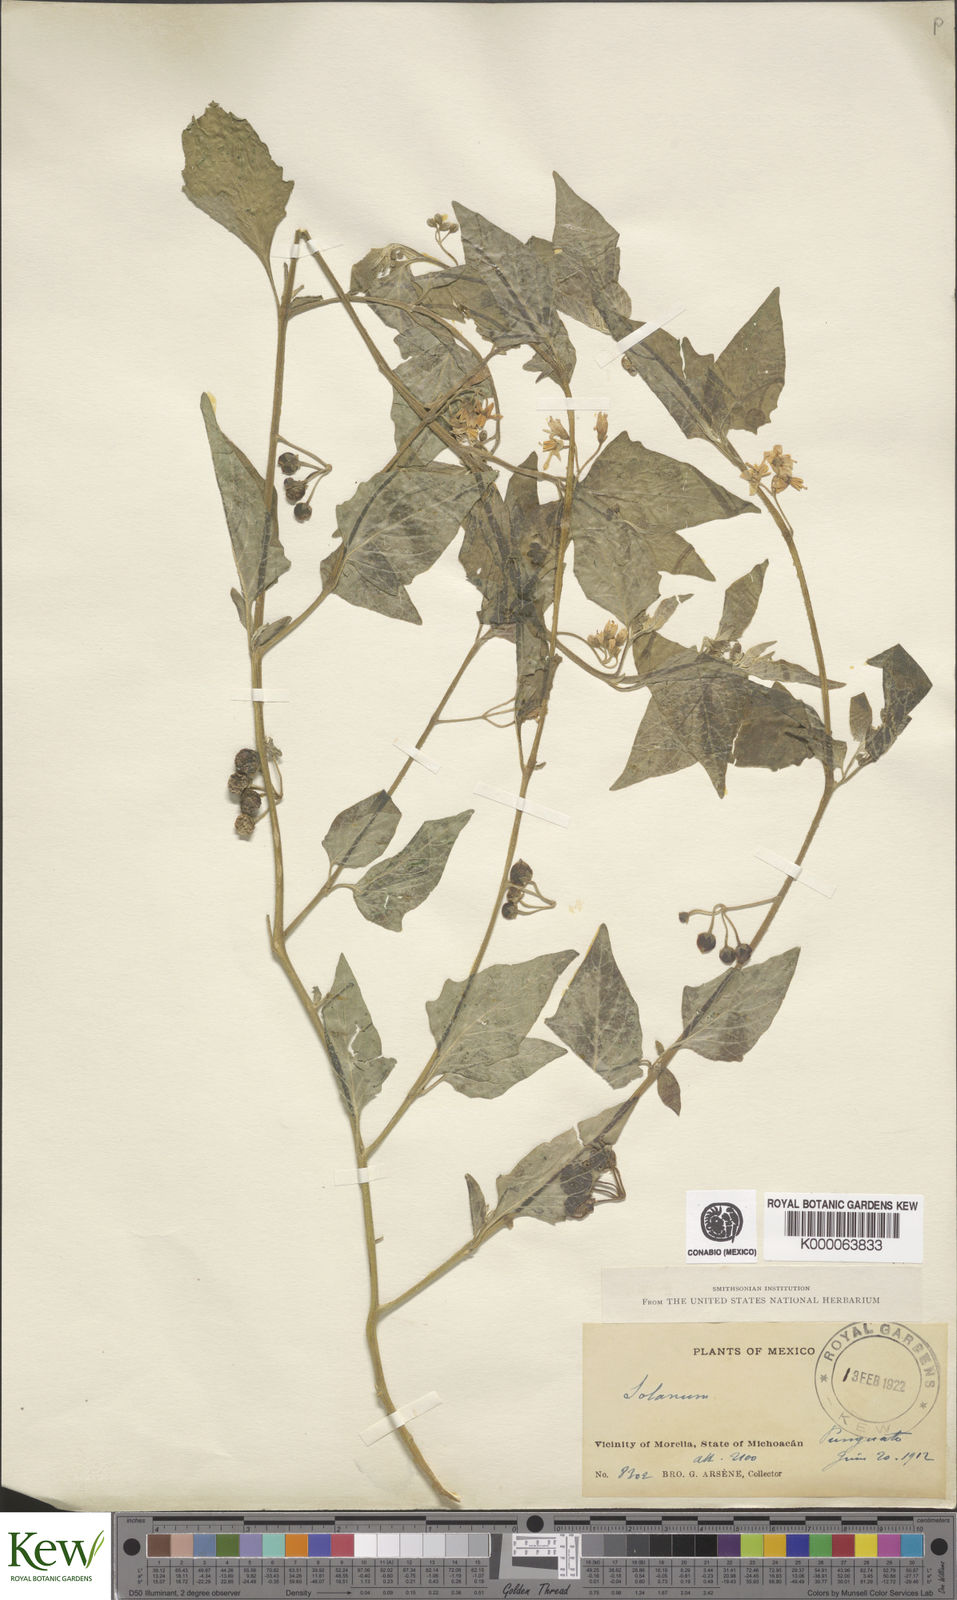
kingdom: Plantae
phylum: Tracheophyta
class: Magnoliopsida
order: Solanales
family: Solanaceae
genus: Solanum
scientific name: Solanum nigrum
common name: Black nightshade
